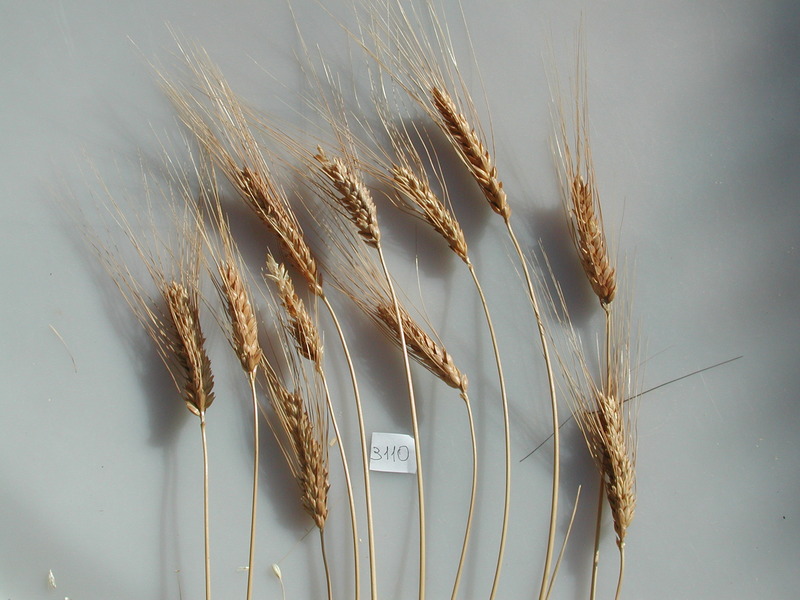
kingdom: Plantae
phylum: Tracheophyta
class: Liliopsida
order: Poales
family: Poaceae
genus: Triticum
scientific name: Triticum turgidum
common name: Wheat
